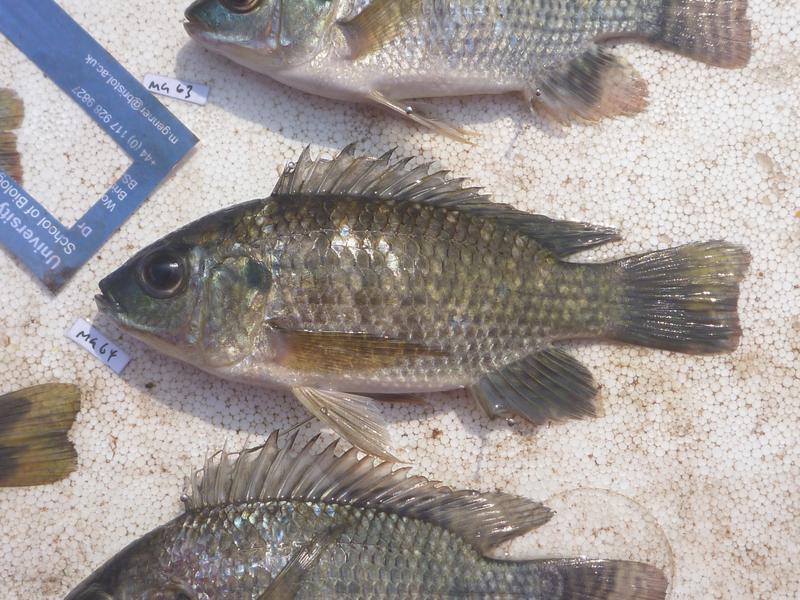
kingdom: Animalia
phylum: Chordata
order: Perciformes
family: Cichlidae
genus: Oreochromis
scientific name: Oreochromis leucostictus
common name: Blue spotted tilapia
